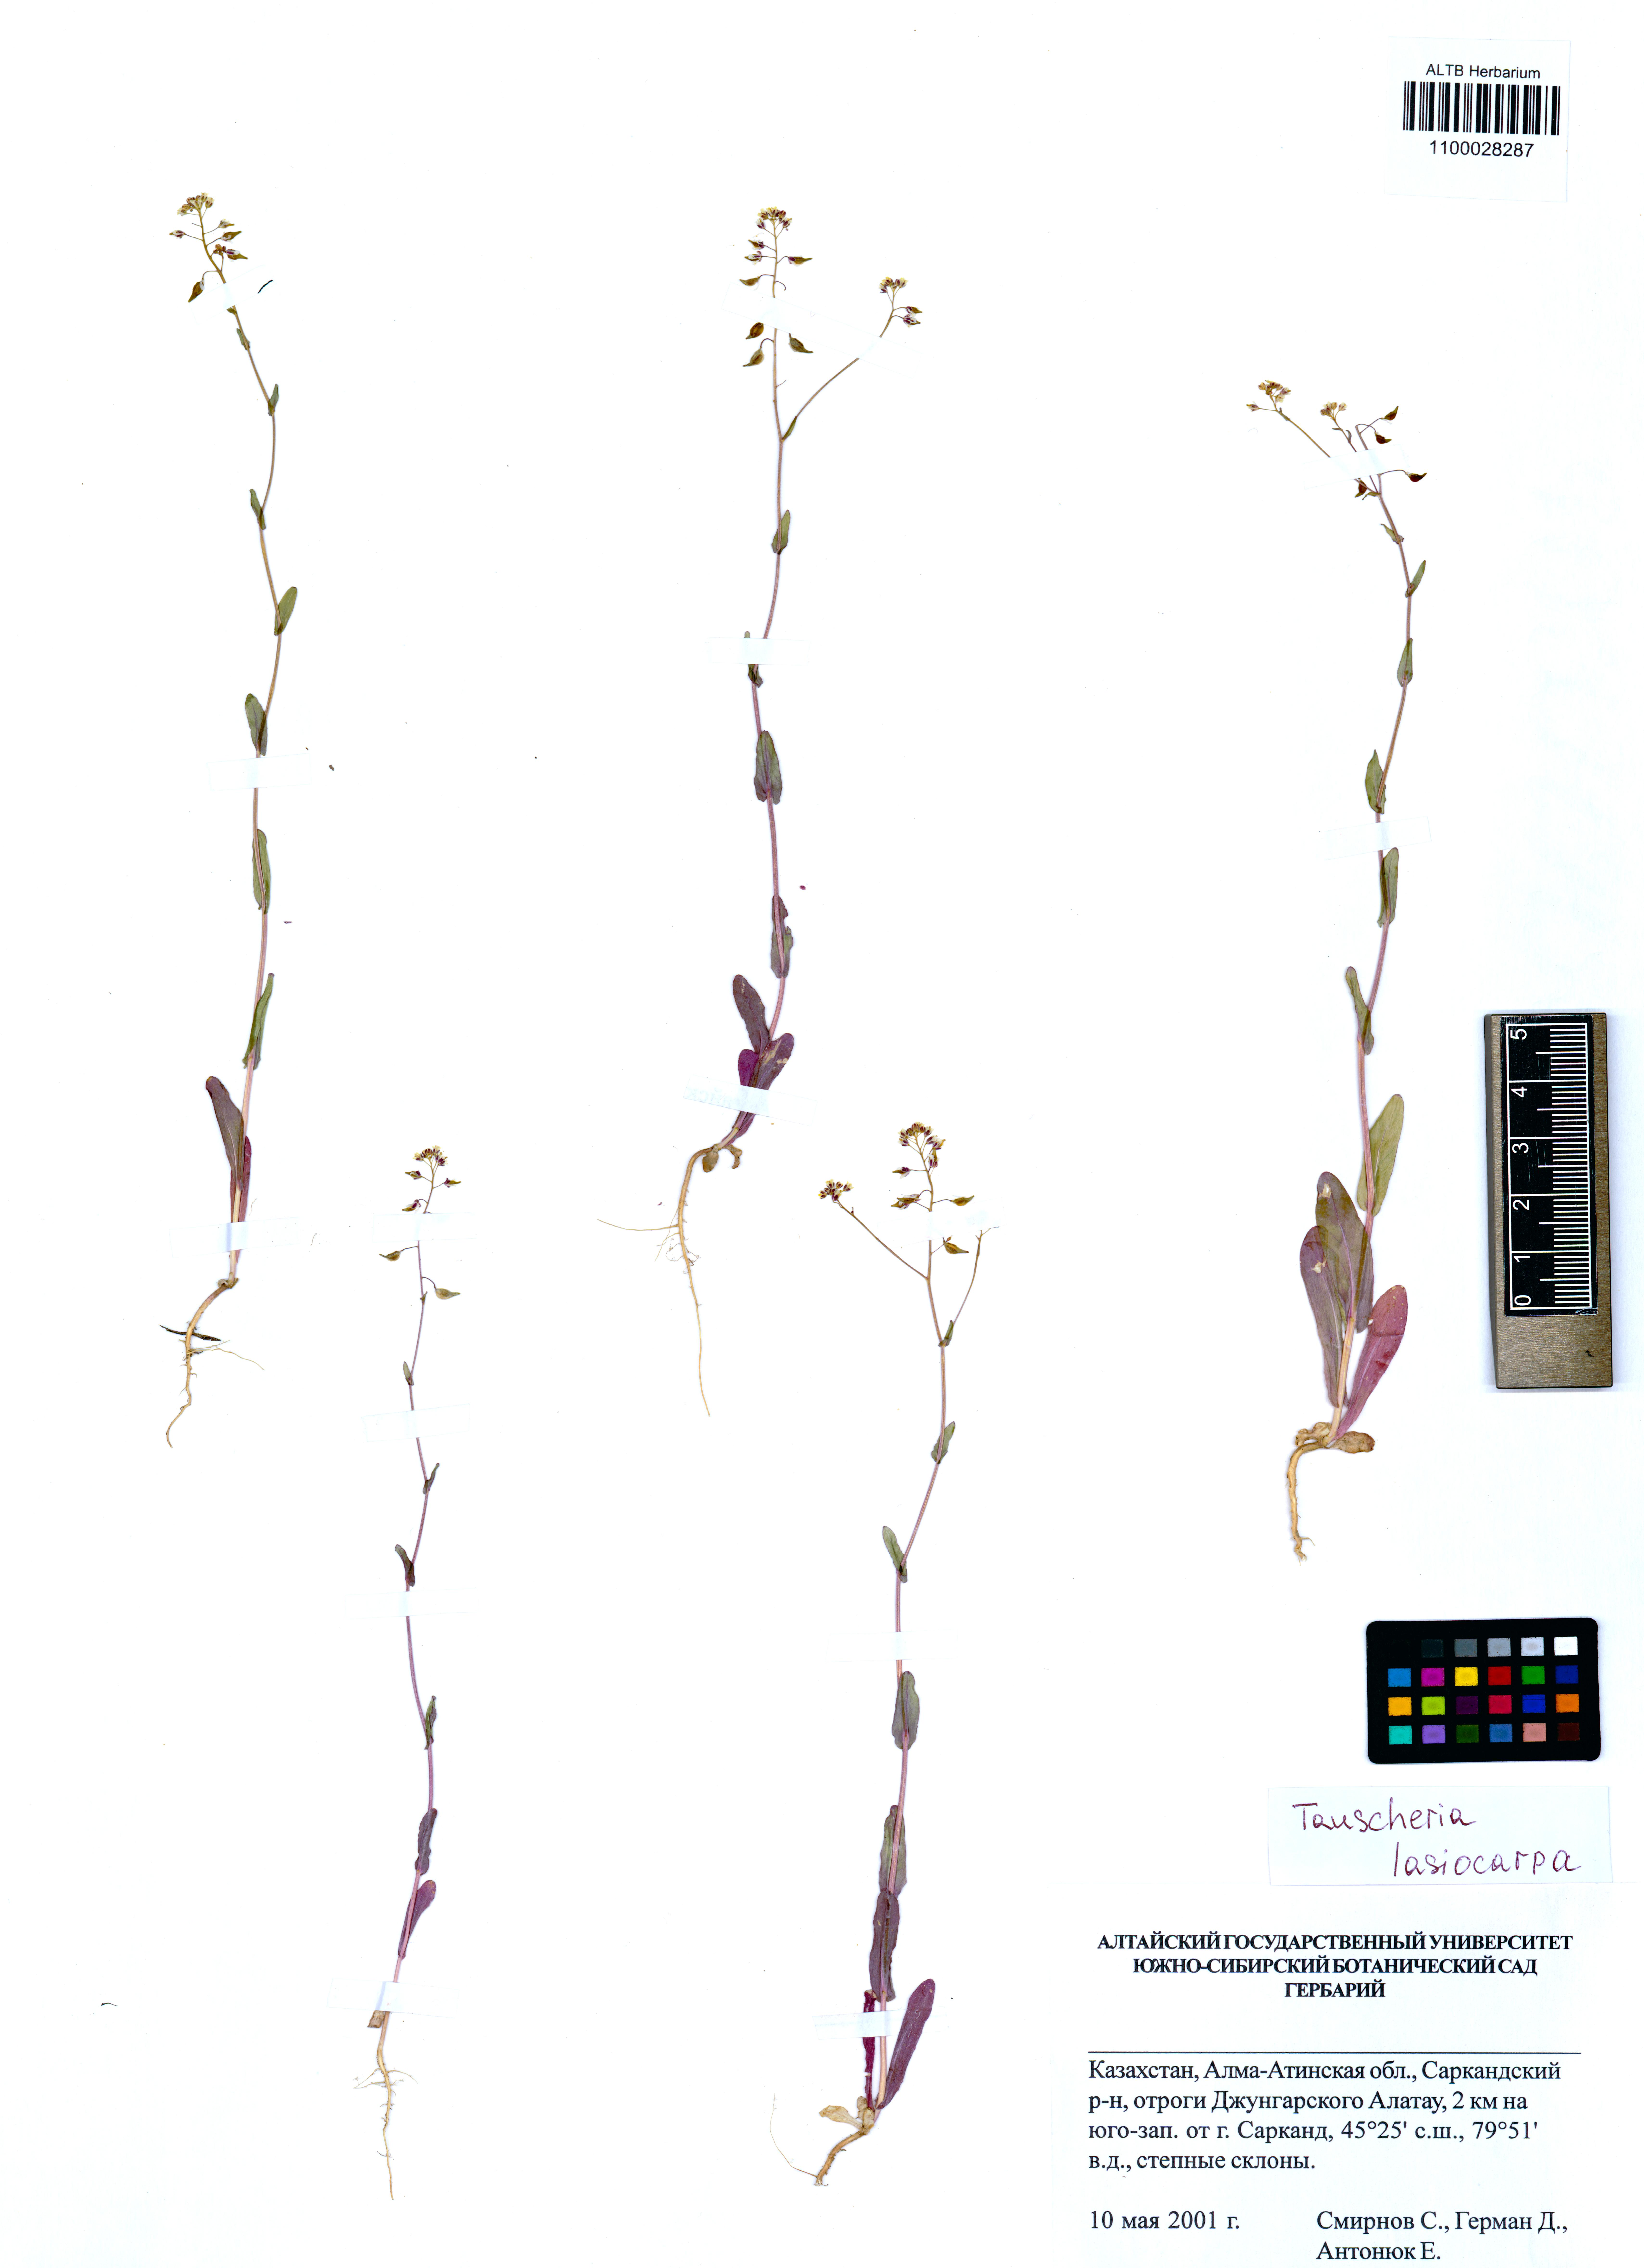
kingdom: Plantae
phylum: Tracheophyta
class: Magnoliopsida
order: Brassicales
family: Brassicaceae
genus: Tauscheria
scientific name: Tauscheria lasiocarpa
